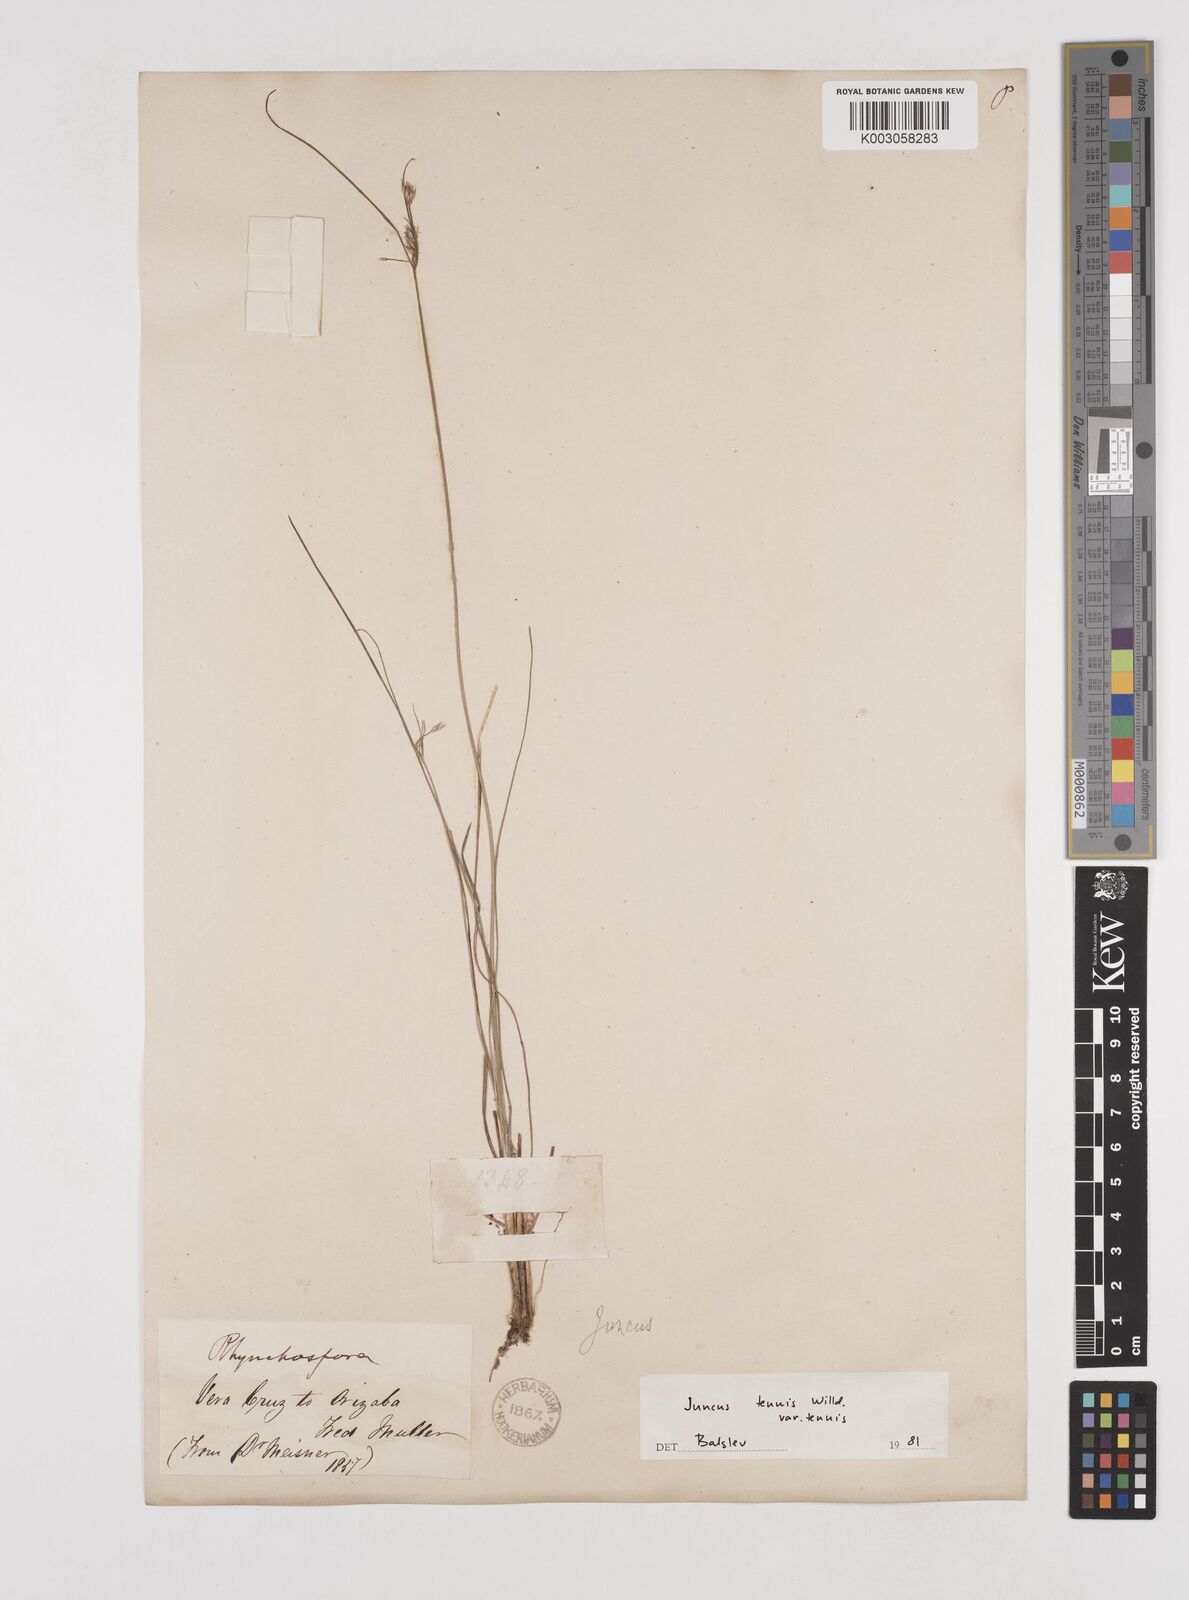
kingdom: Plantae
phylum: Tracheophyta
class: Liliopsida
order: Poales
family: Juncaceae
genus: Juncus
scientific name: Juncus tenuis
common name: Slender rush
